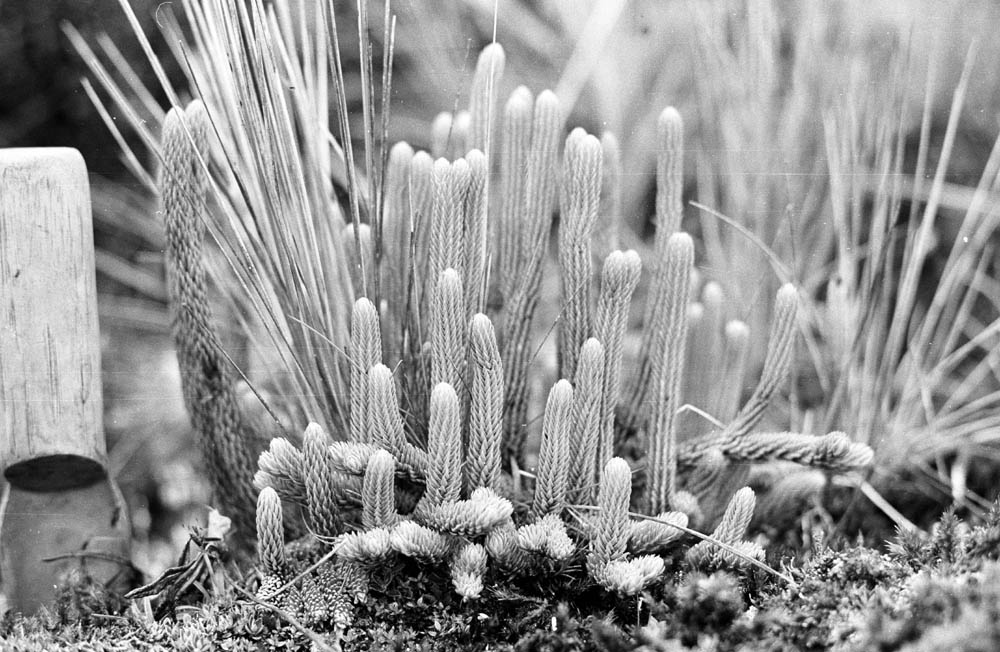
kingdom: Plantae
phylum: Tracheophyta
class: Lycopodiopsida
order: Lycopodiales
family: Lycopodiaceae
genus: Phlegmariurus
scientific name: Phlegmariurus crassus
